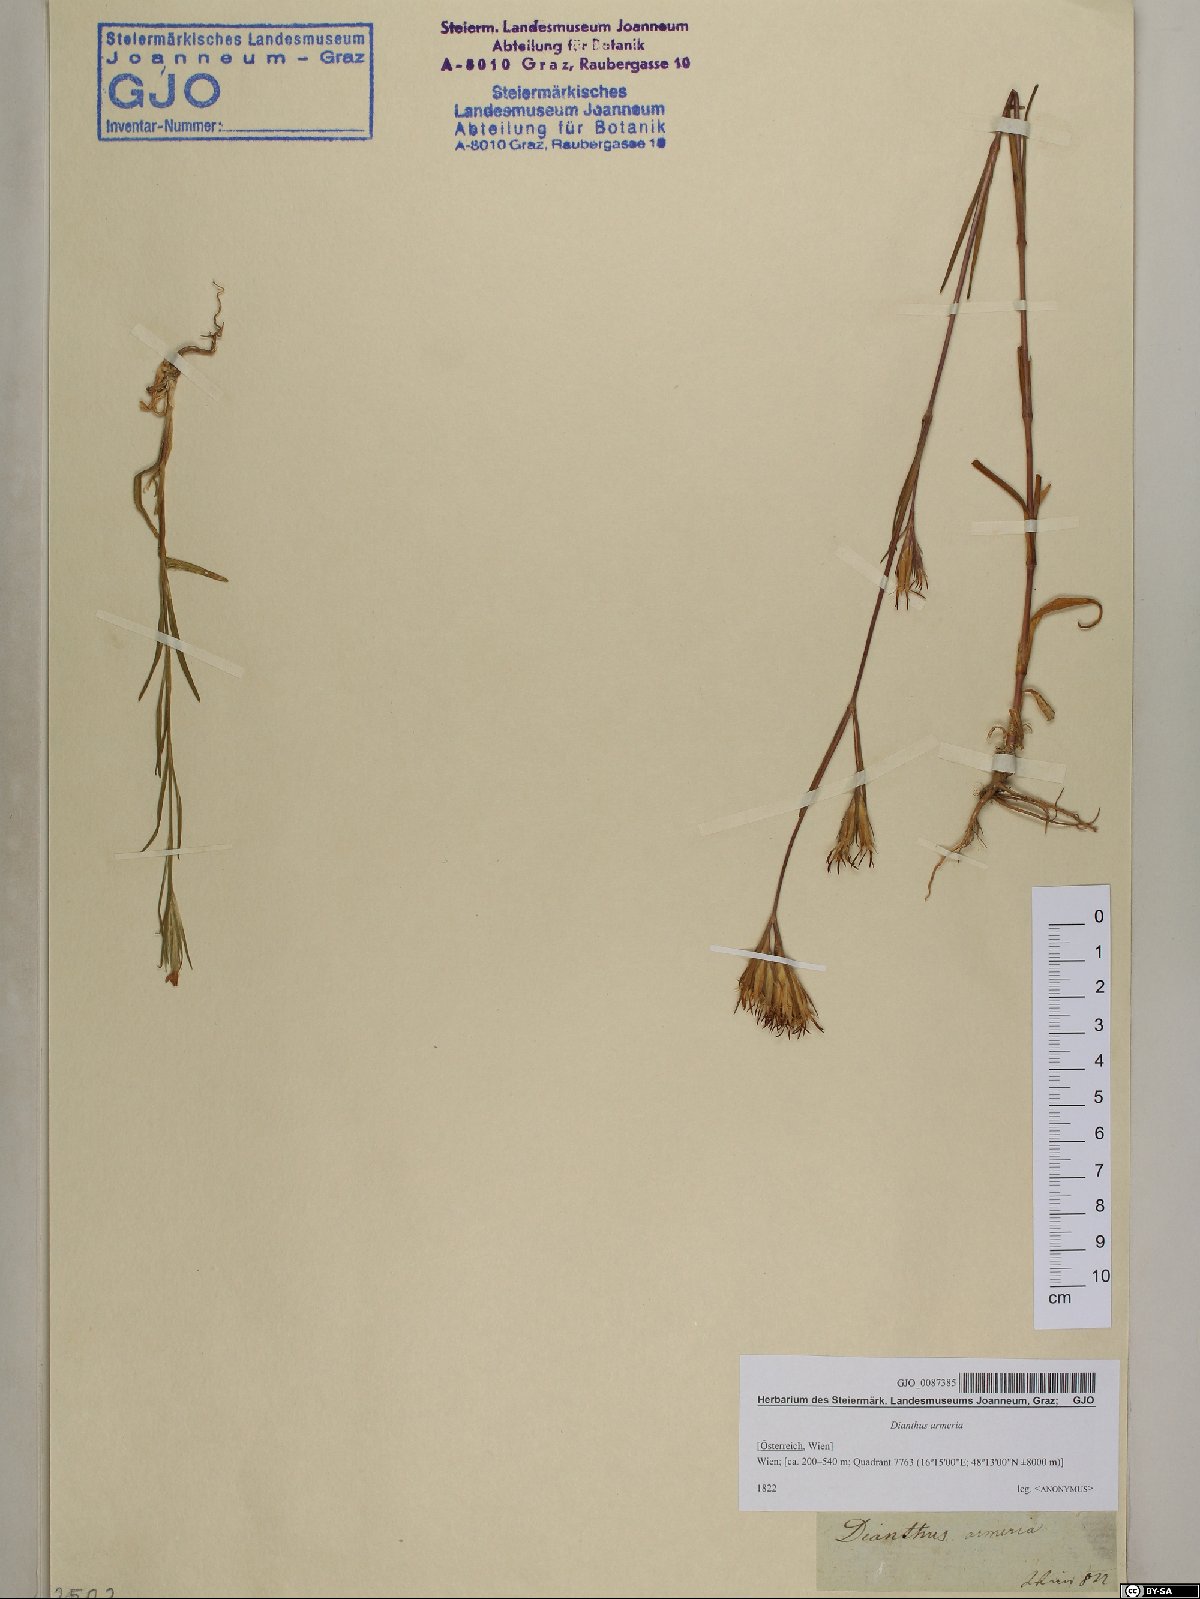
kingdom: Plantae
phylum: Tracheophyta
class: Magnoliopsida
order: Caryophyllales
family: Caryophyllaceae
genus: Dianthus
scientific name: Dianthus armeria
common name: Deptford pink
